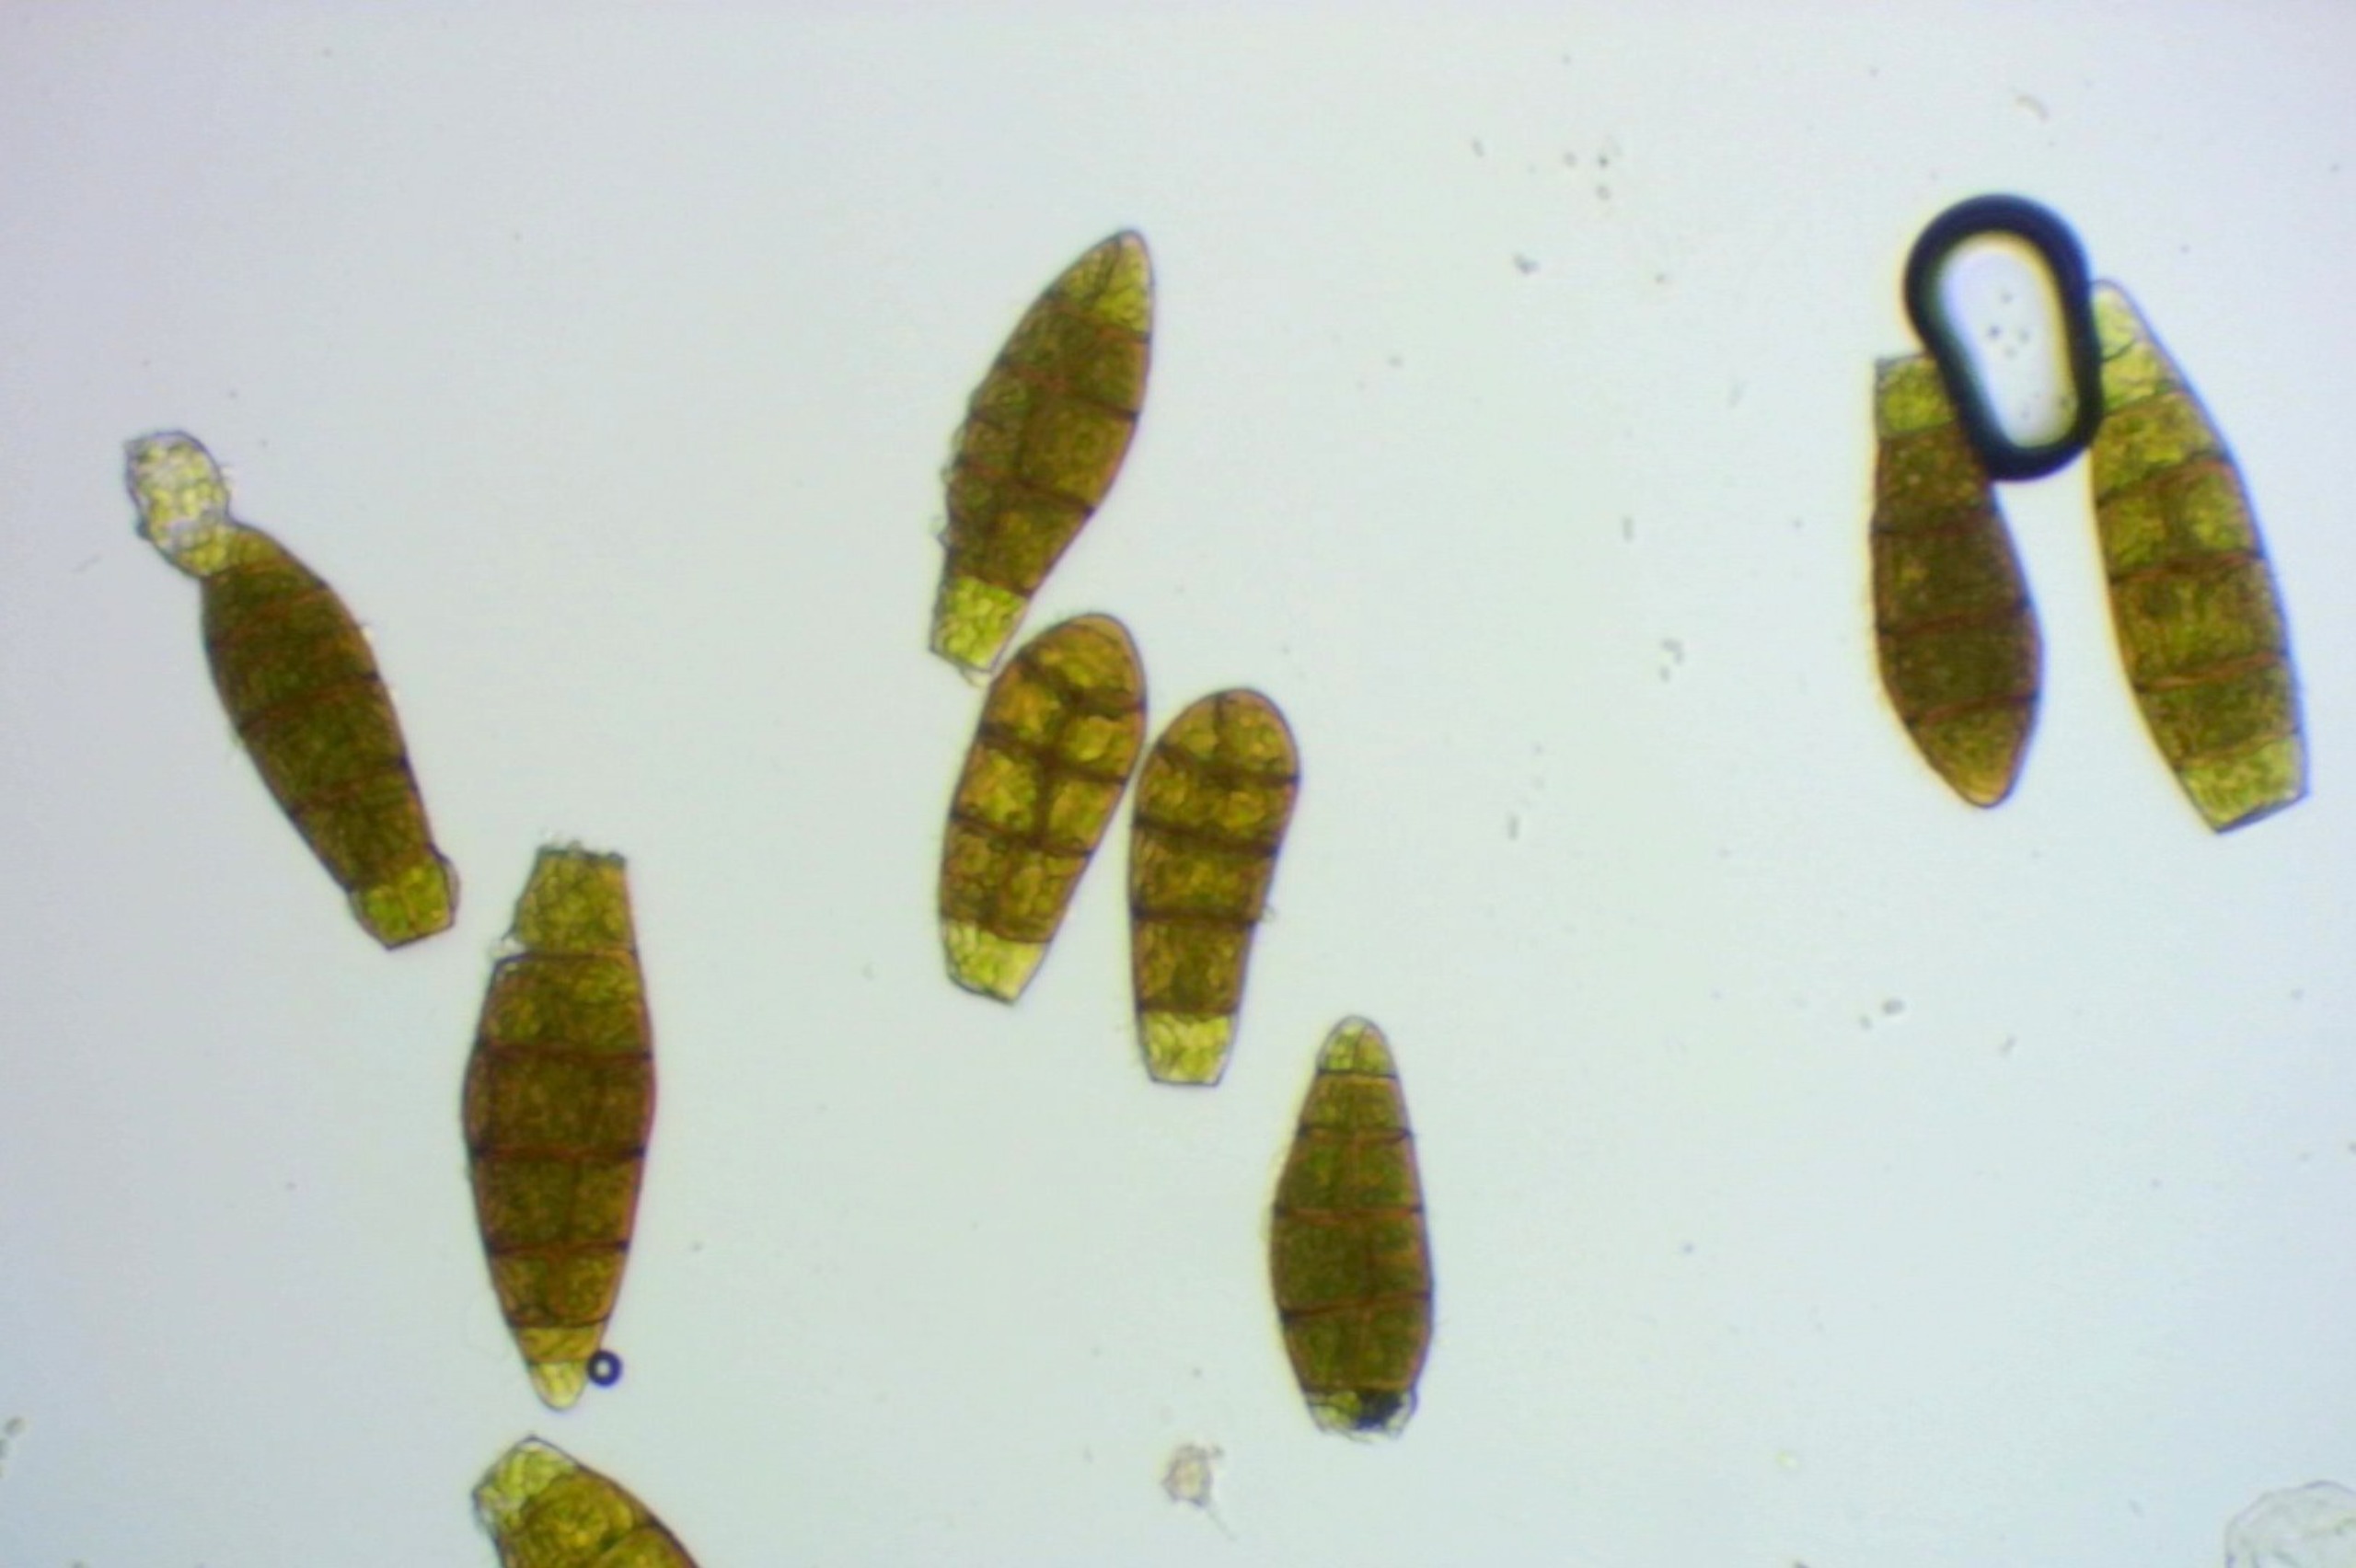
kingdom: Plantae
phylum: Bryophyta
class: Bryopsida
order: Orthotrichales
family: Orthotrichaceae
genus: Zygodon
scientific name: Zygodon viridissimus
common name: Grøn køllemos
